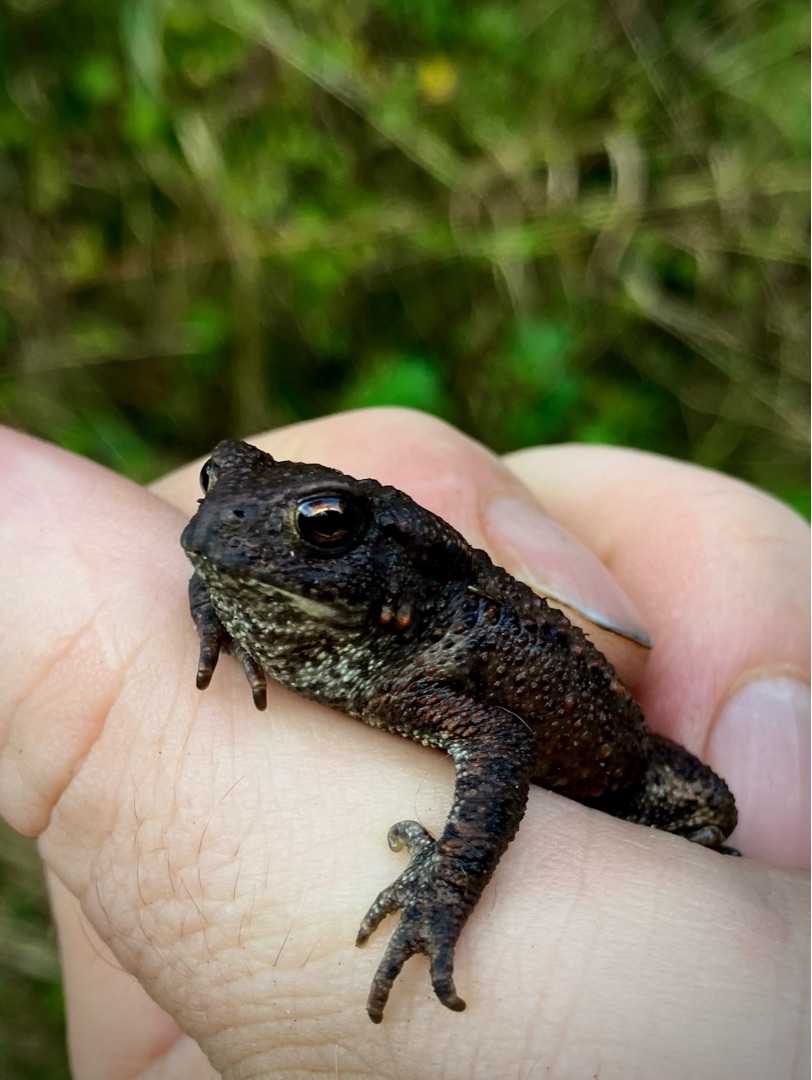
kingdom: Animalia
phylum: Chordata
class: Amphibia
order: Anura
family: Bufonidae
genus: Bufo
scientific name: Bufo bufo
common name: Skrubtudse
